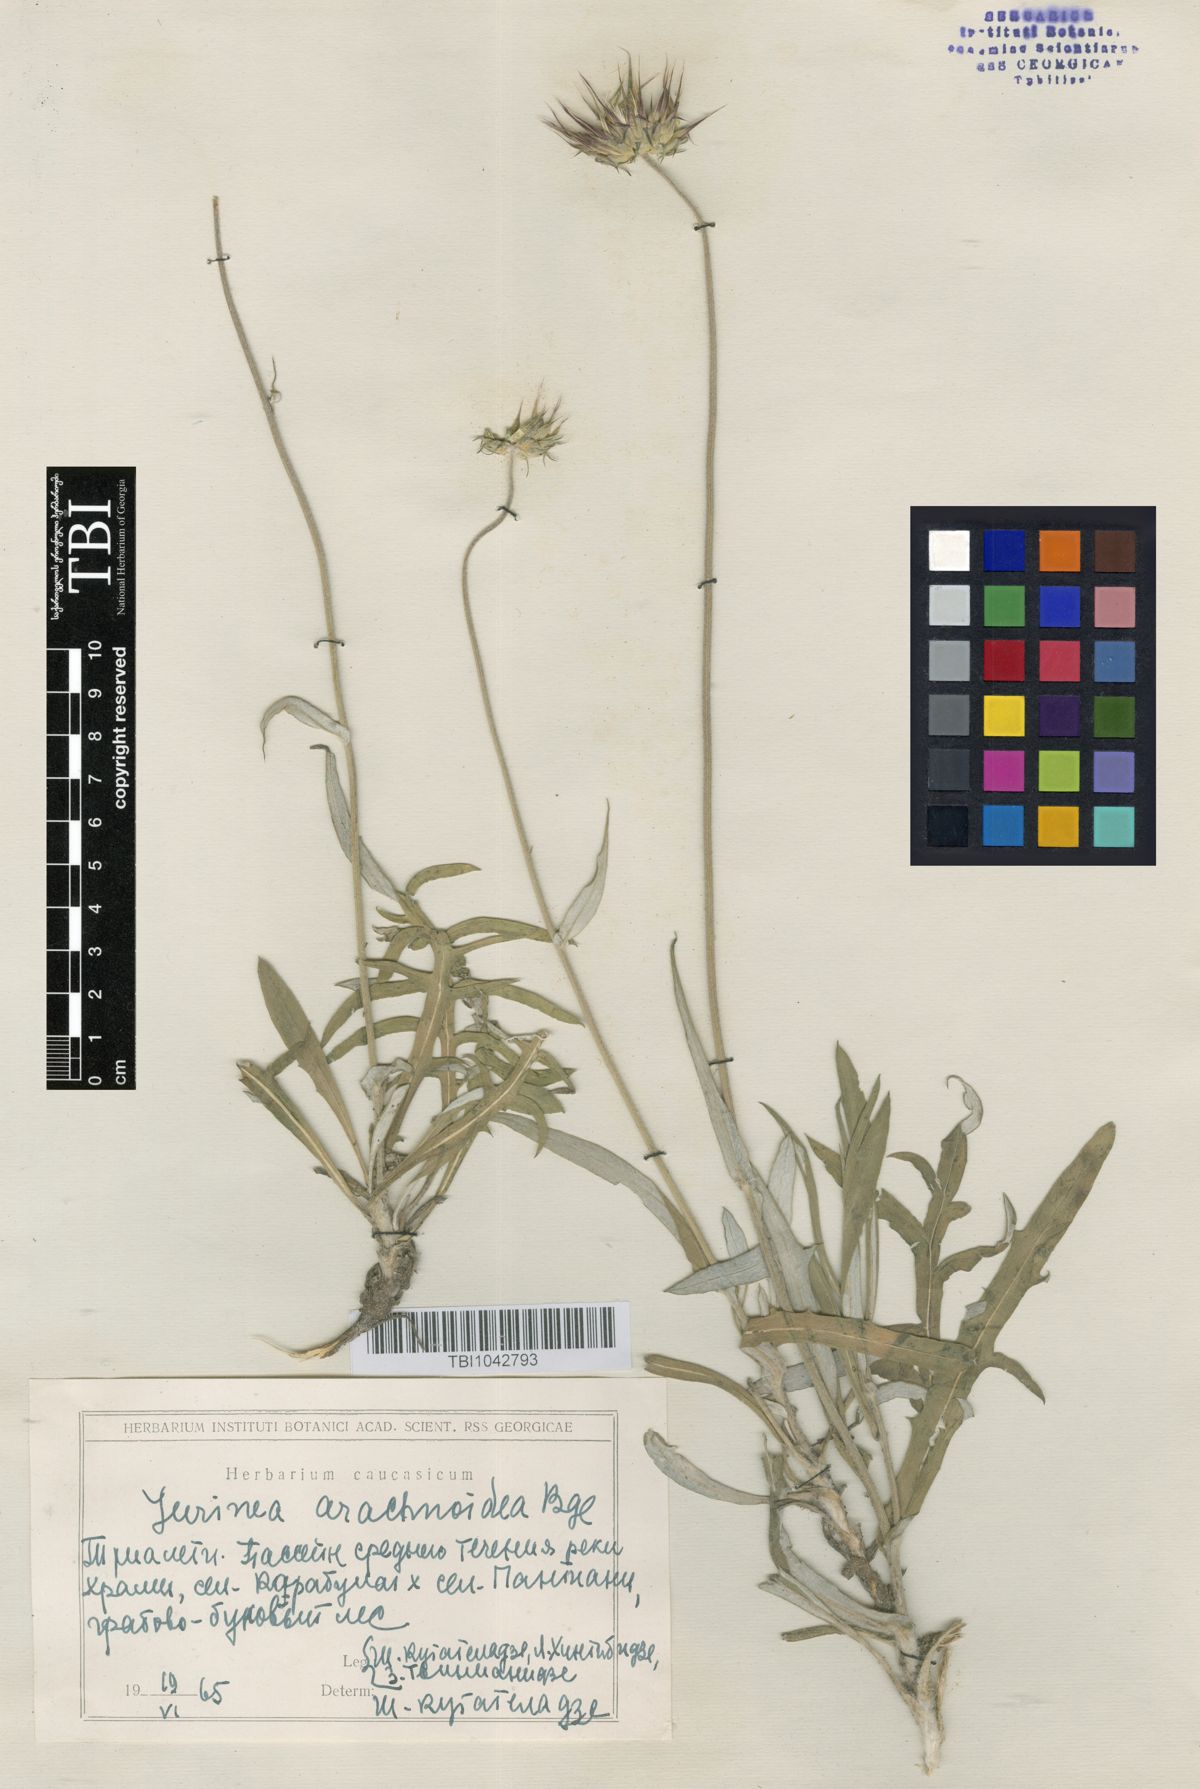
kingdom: Plantae
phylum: Tracheophyta
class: Magnoliopsida
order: Asterales
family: Asteraceae
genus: Jurinea
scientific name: Jurinea blanda
